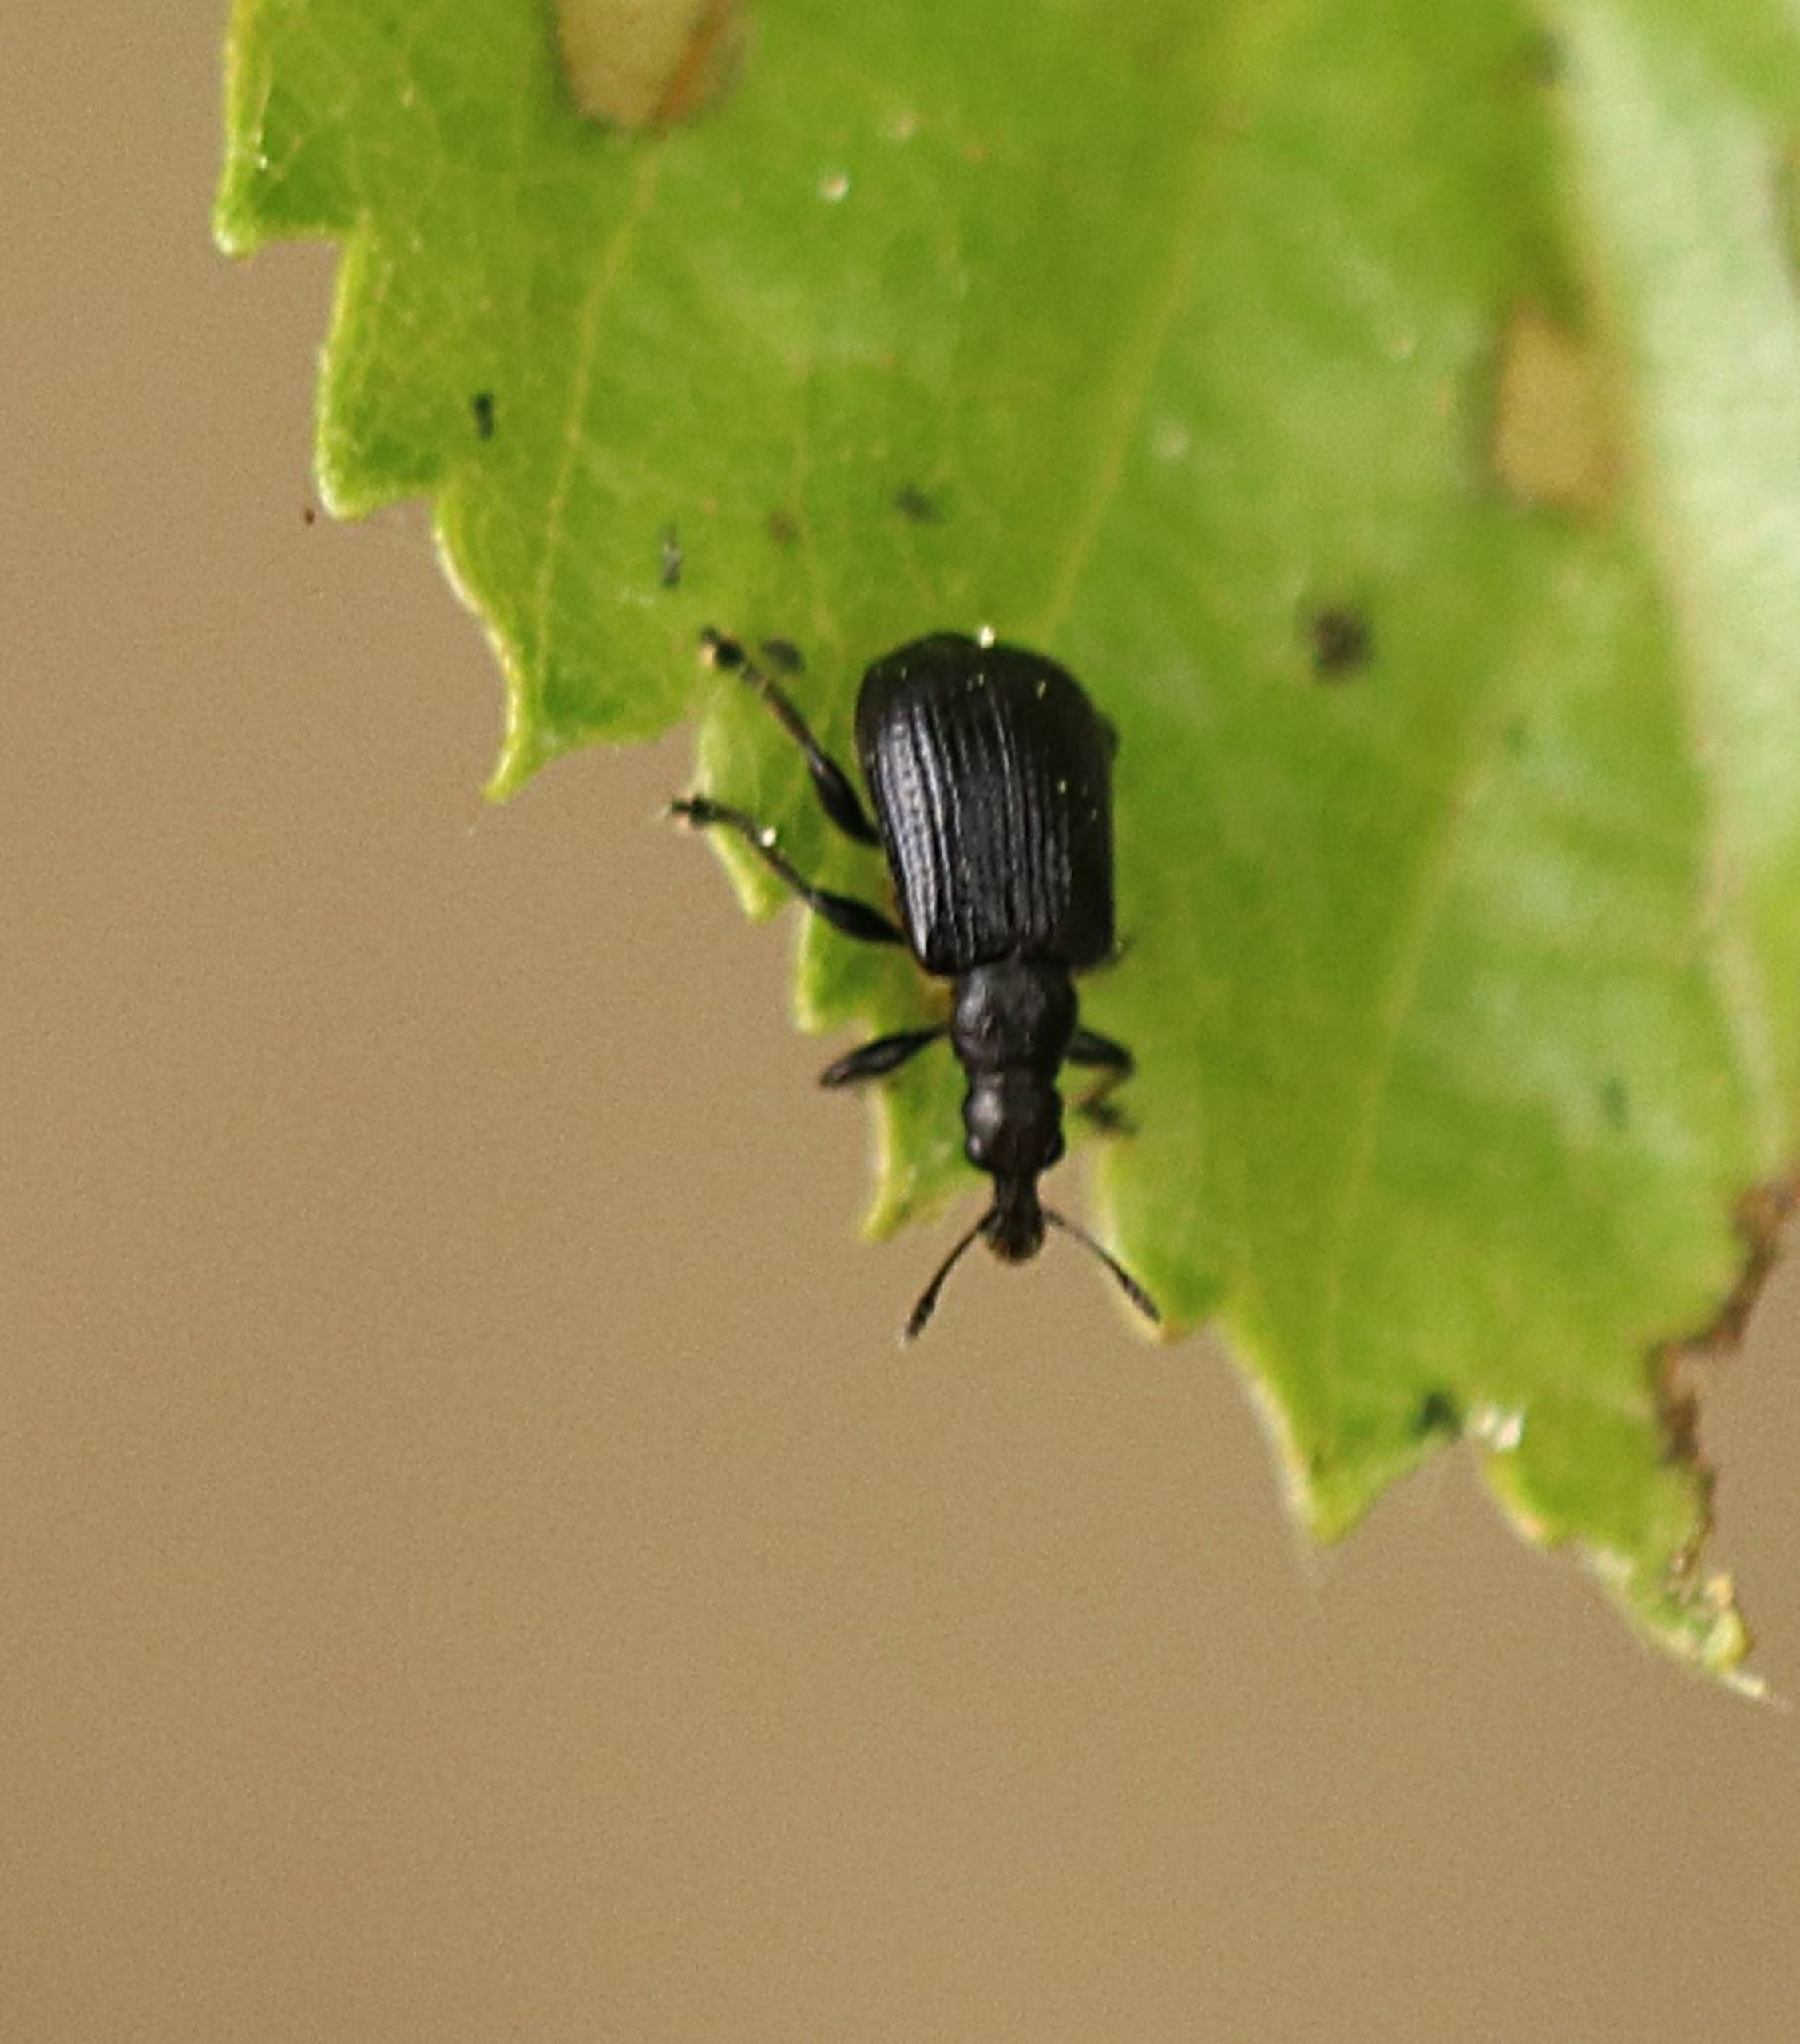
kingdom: Animalia
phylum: Arthropoda
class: Insecta
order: Coleoptera
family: Attelabidae
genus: Byctiscus
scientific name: Byctiscus betulae
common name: Birkebladruller
